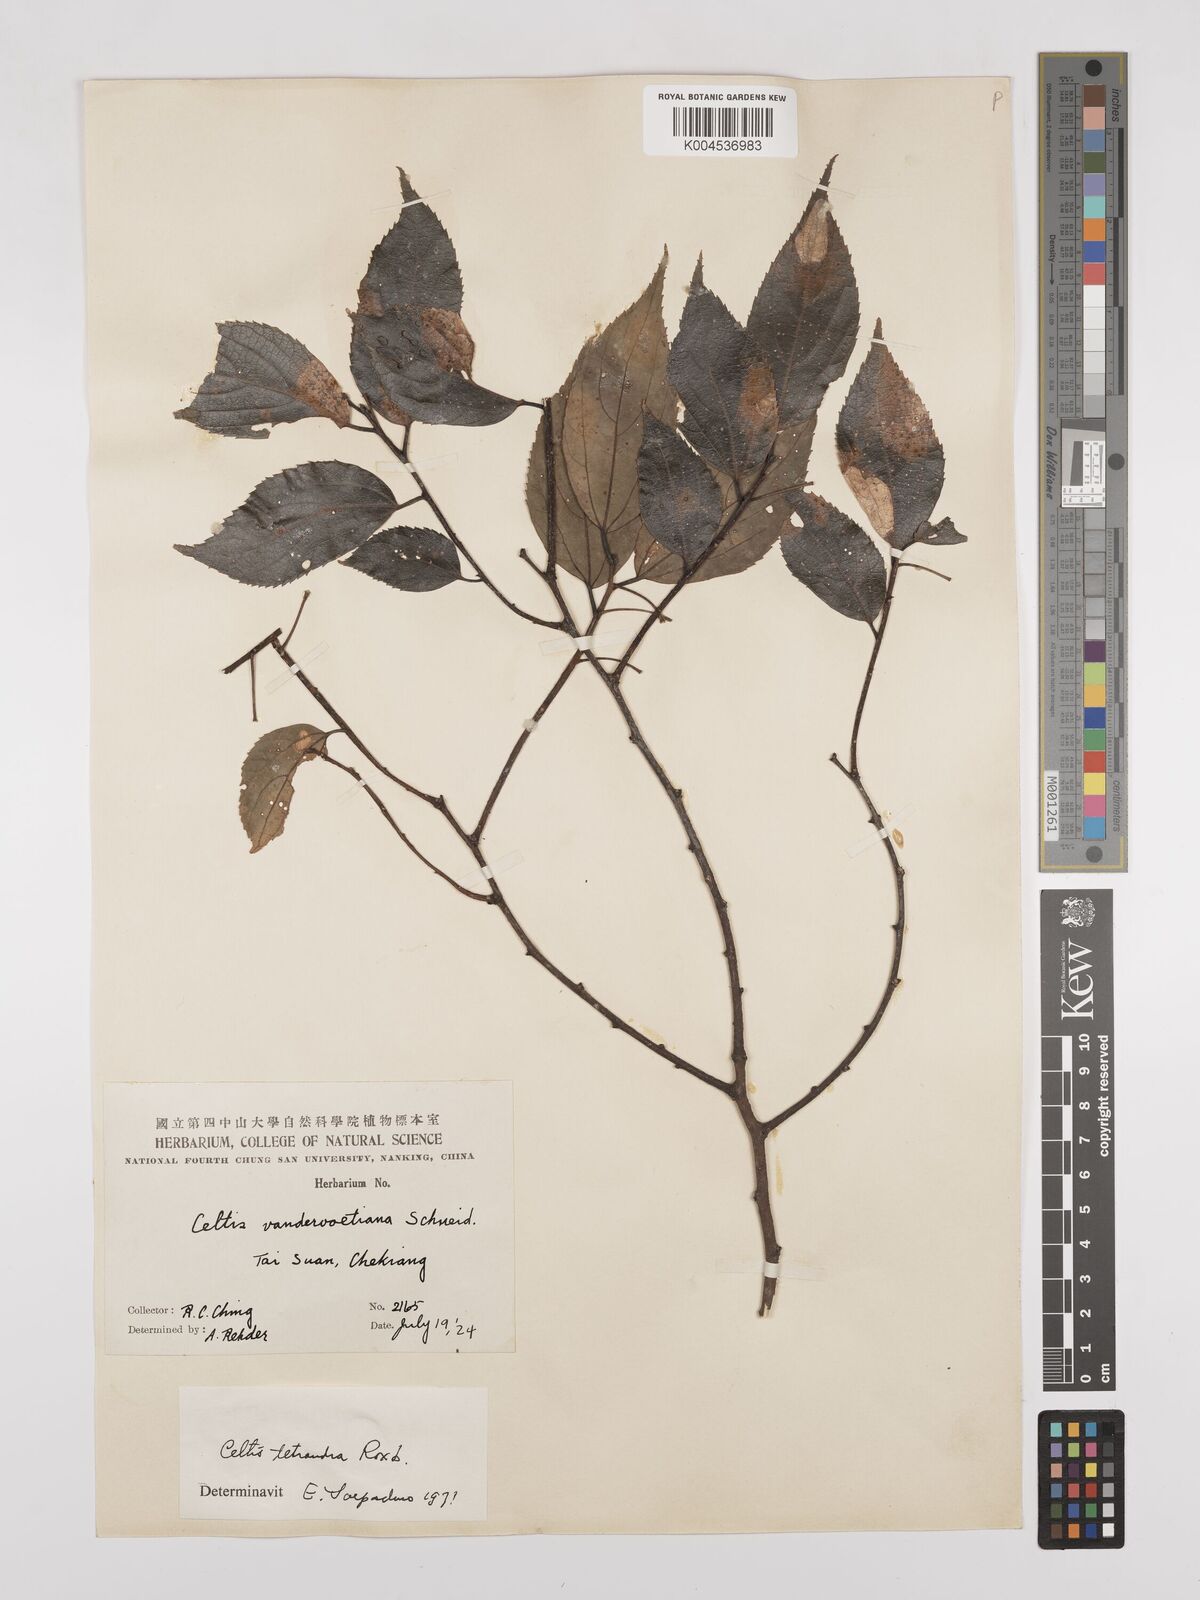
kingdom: Plantae
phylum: Tracheophyta
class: Magnoliopsida
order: Rosales
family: Cannabaceae
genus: Celtis
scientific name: Celtis tetrandra
